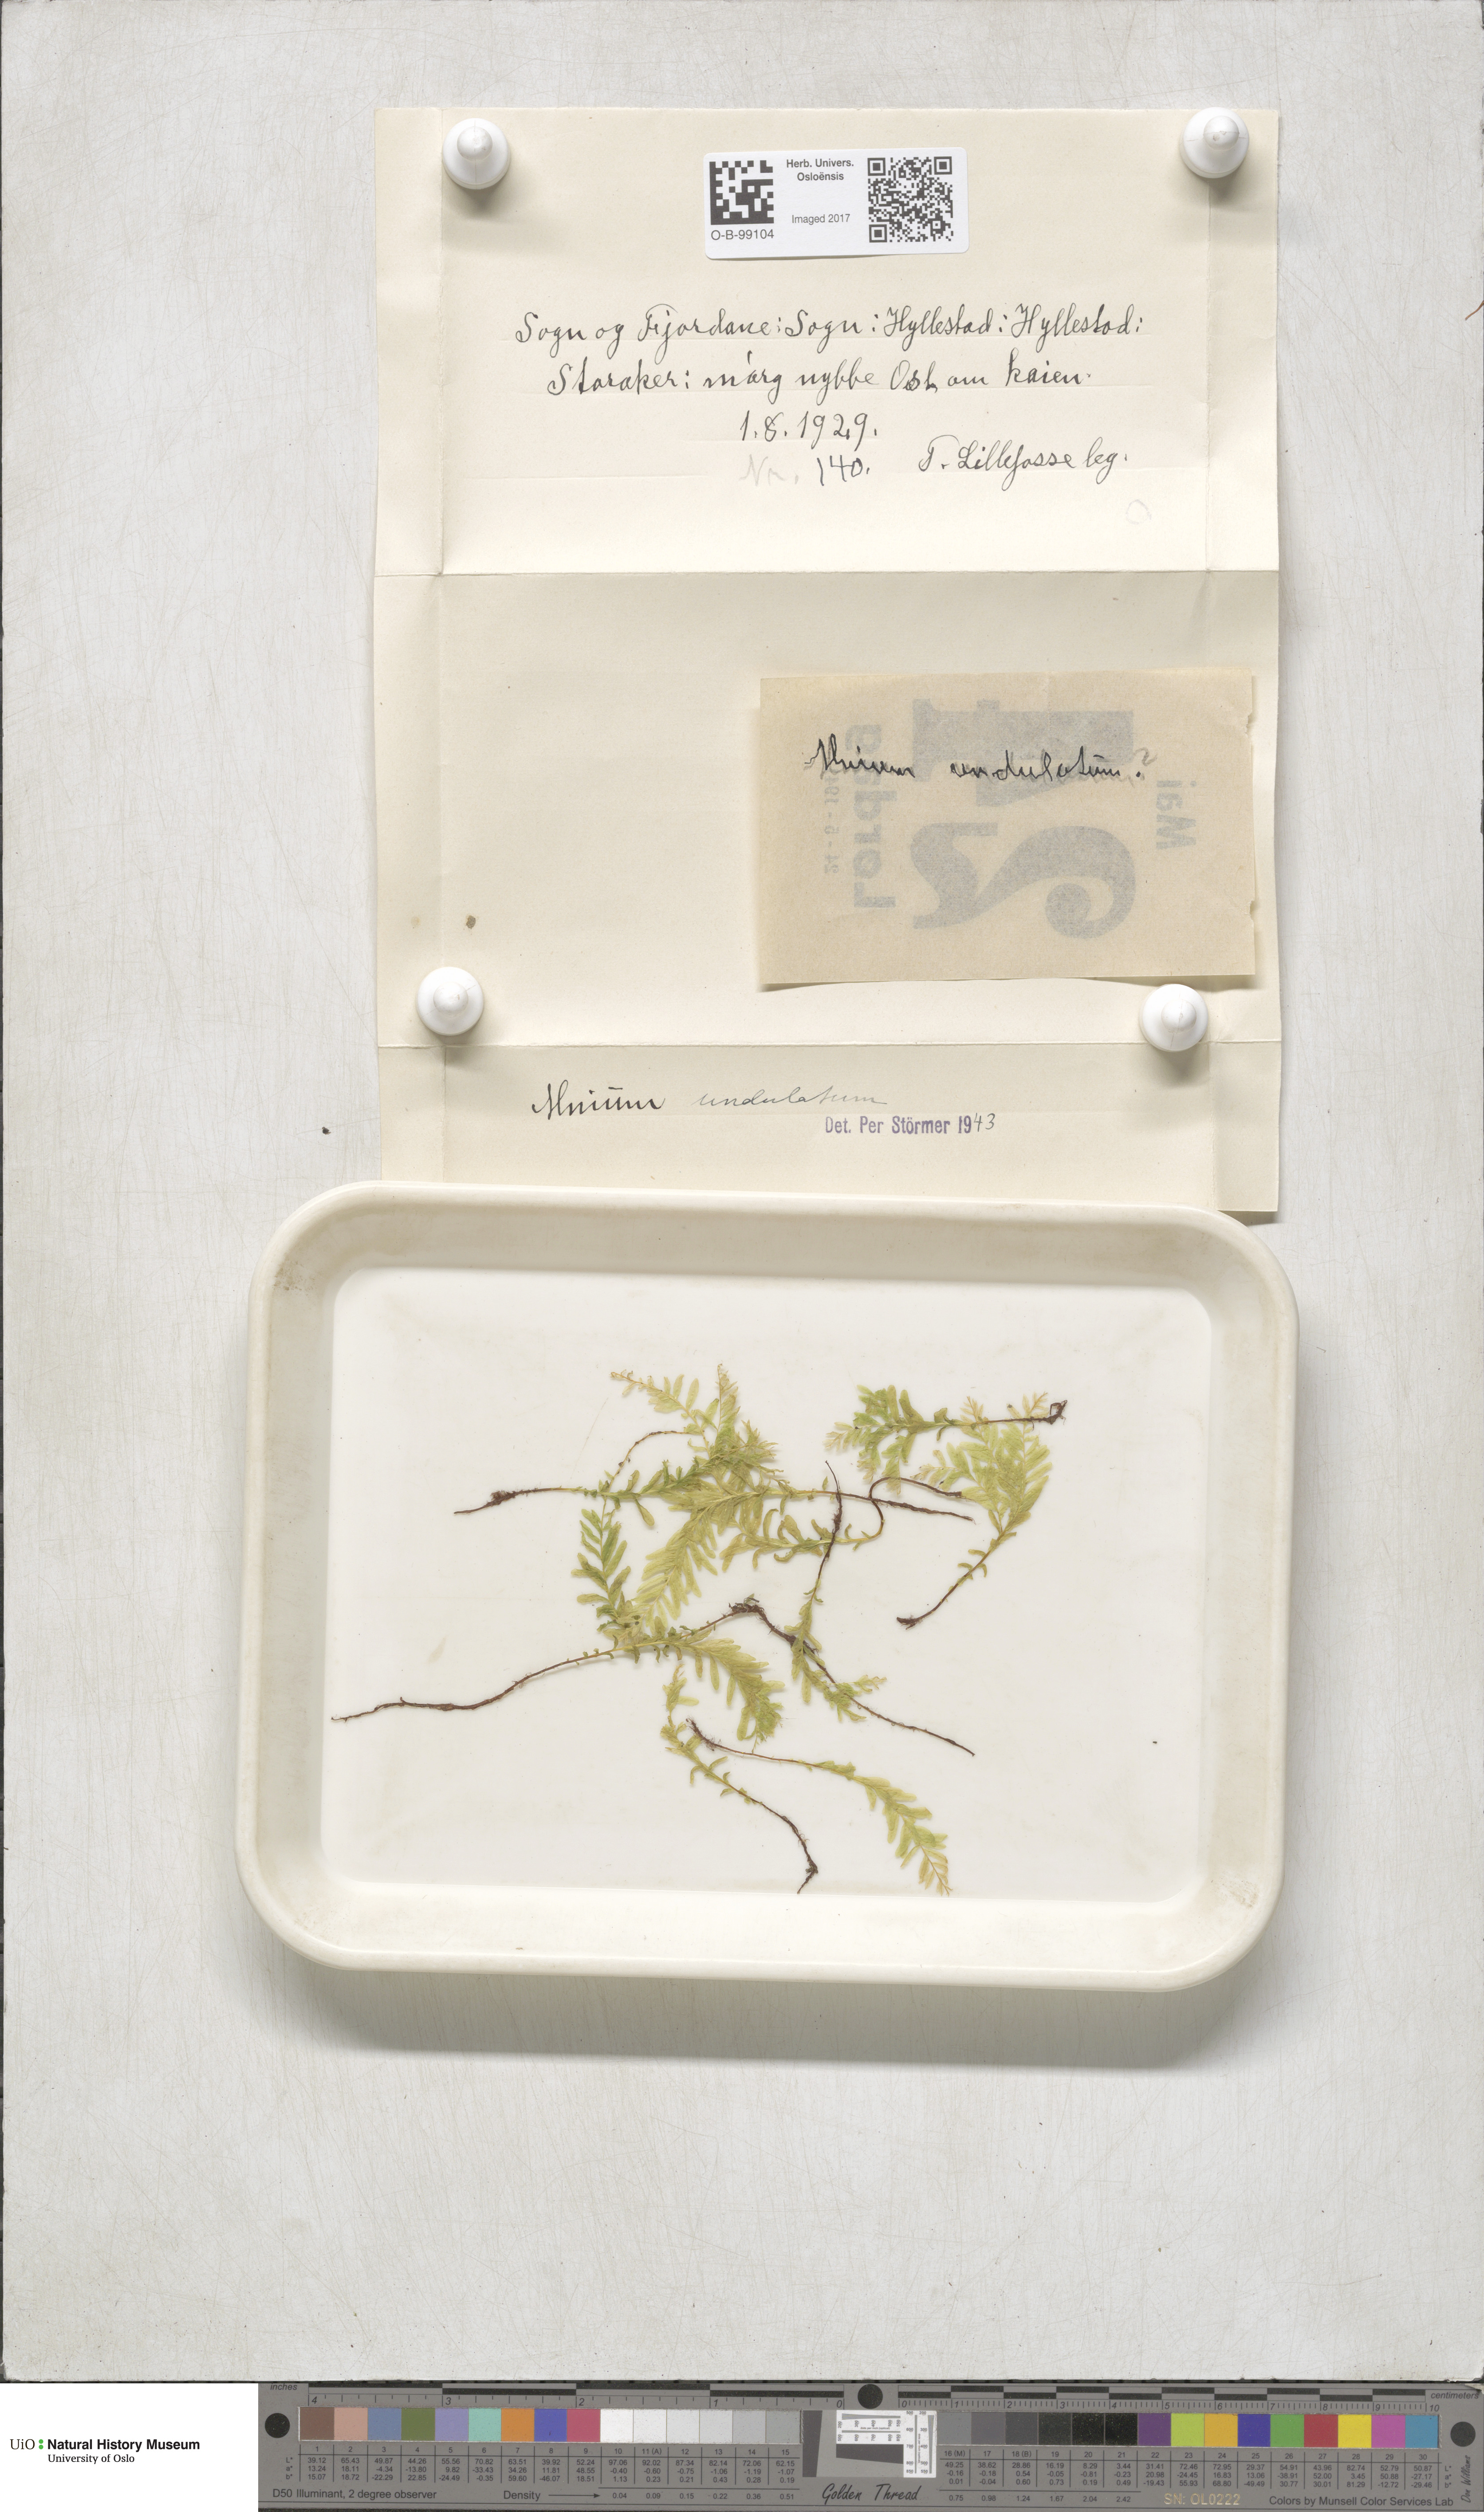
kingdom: Plantae
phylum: Bryophyta
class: Bryopsida
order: Bryales
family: Mniaceae
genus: Plagiomnium
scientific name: Plagiomnium undulatum
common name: Hart's-tongue thyme-moss
